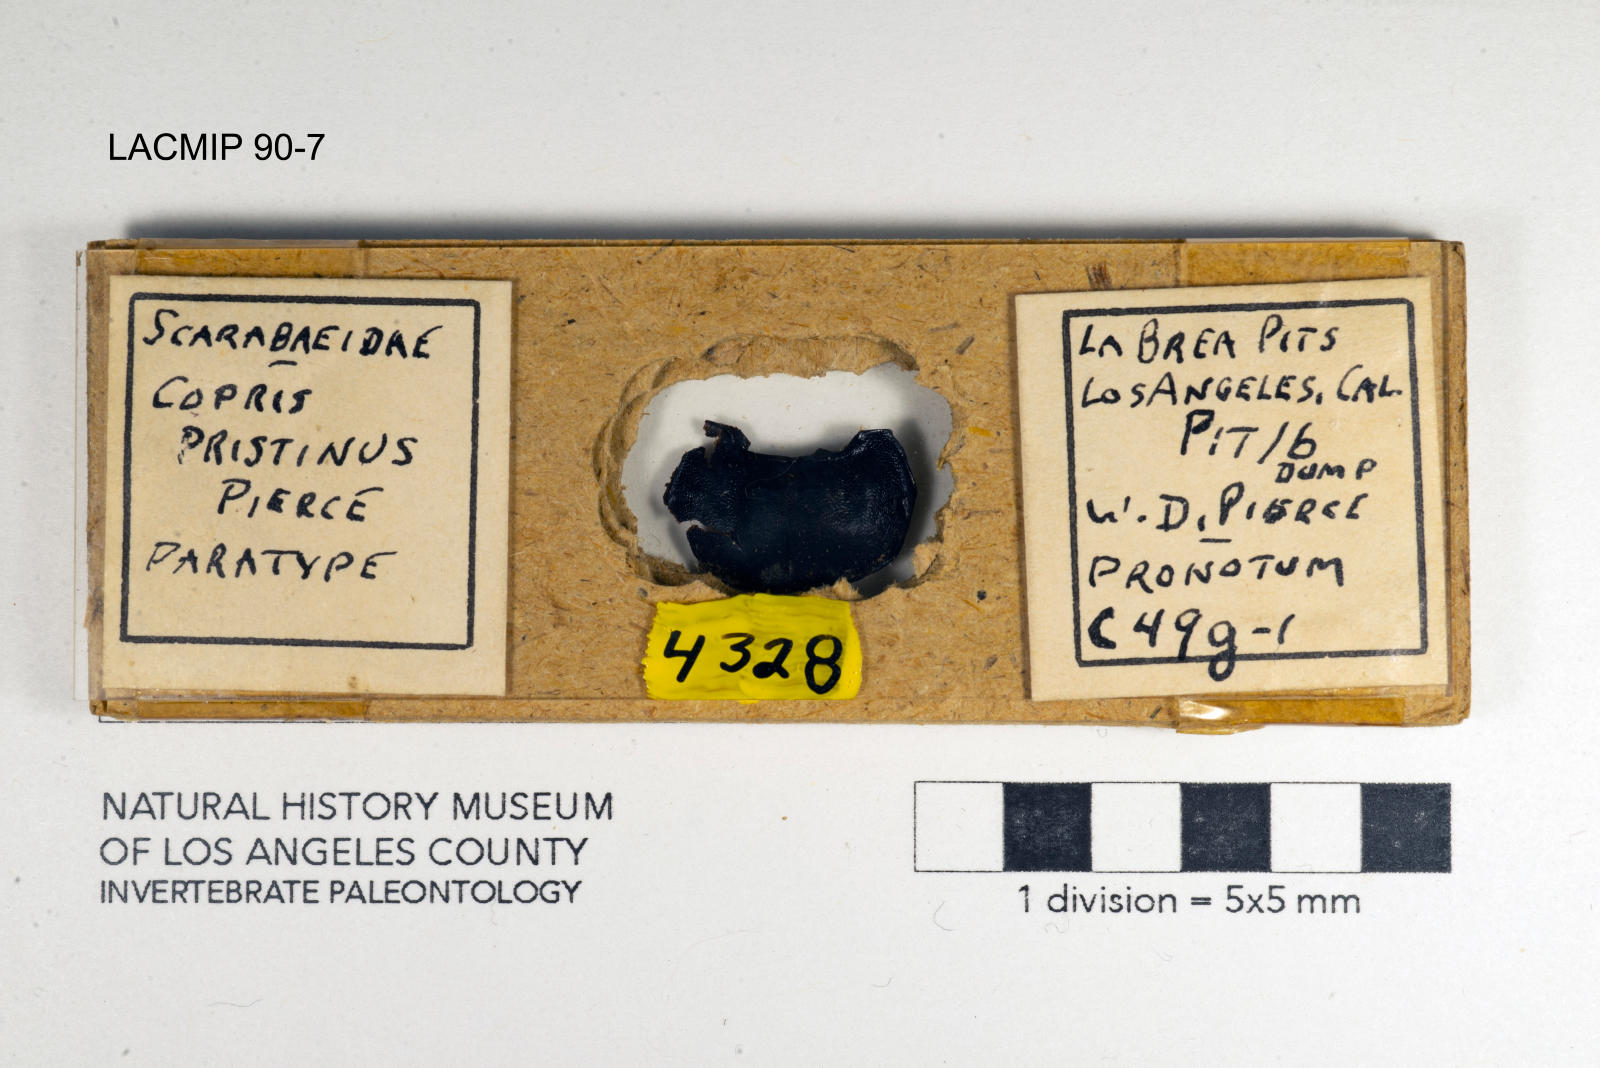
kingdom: Animalia
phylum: Arthropoda
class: Insecta
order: Coleoptera
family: Scarabaeidae
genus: Copris
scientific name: Copris pristinus
